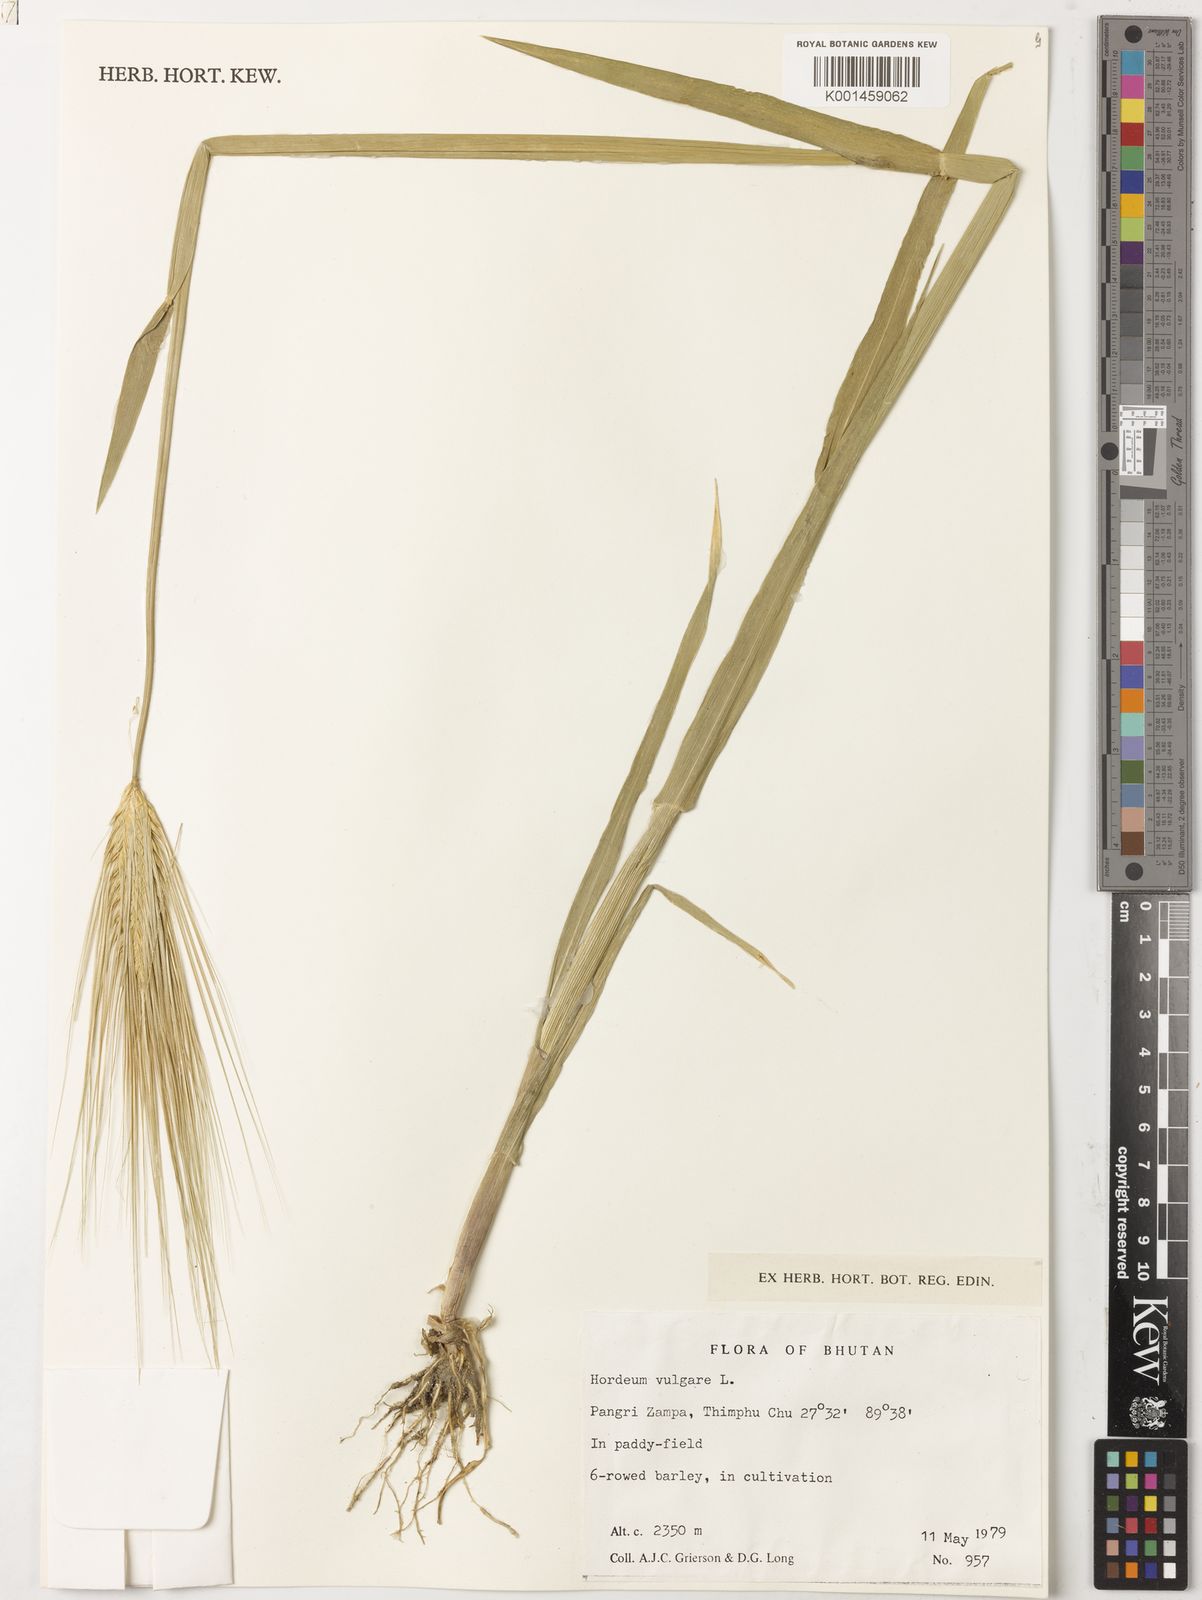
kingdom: Plantae
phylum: Tracheophyta
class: Liliopsida
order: Poales
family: Poaceae
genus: Hordeum
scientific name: Hordeum vulgare
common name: Common barley
